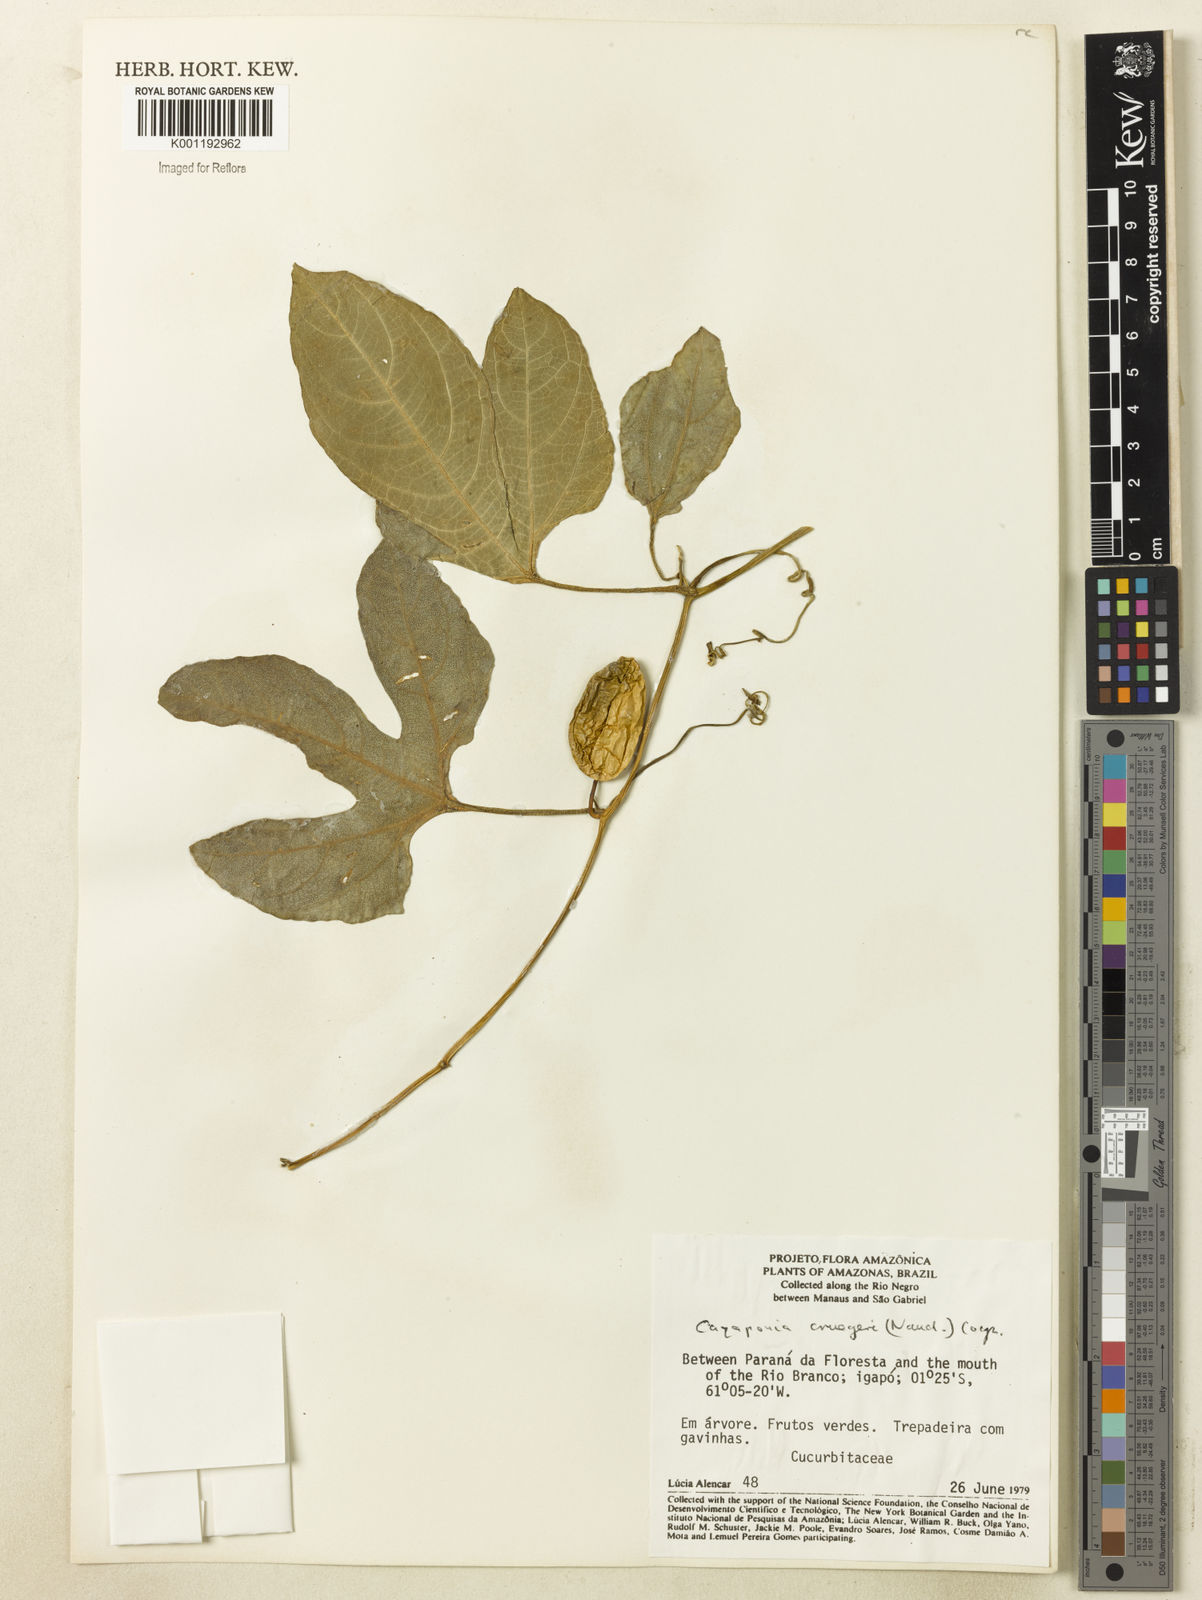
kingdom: Plantae
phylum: Tracheophyta
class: Magnoliopsida
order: Cucurbitales
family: Cucurbitaceae
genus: Cayaponia
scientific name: Cayaponia cruegeri
